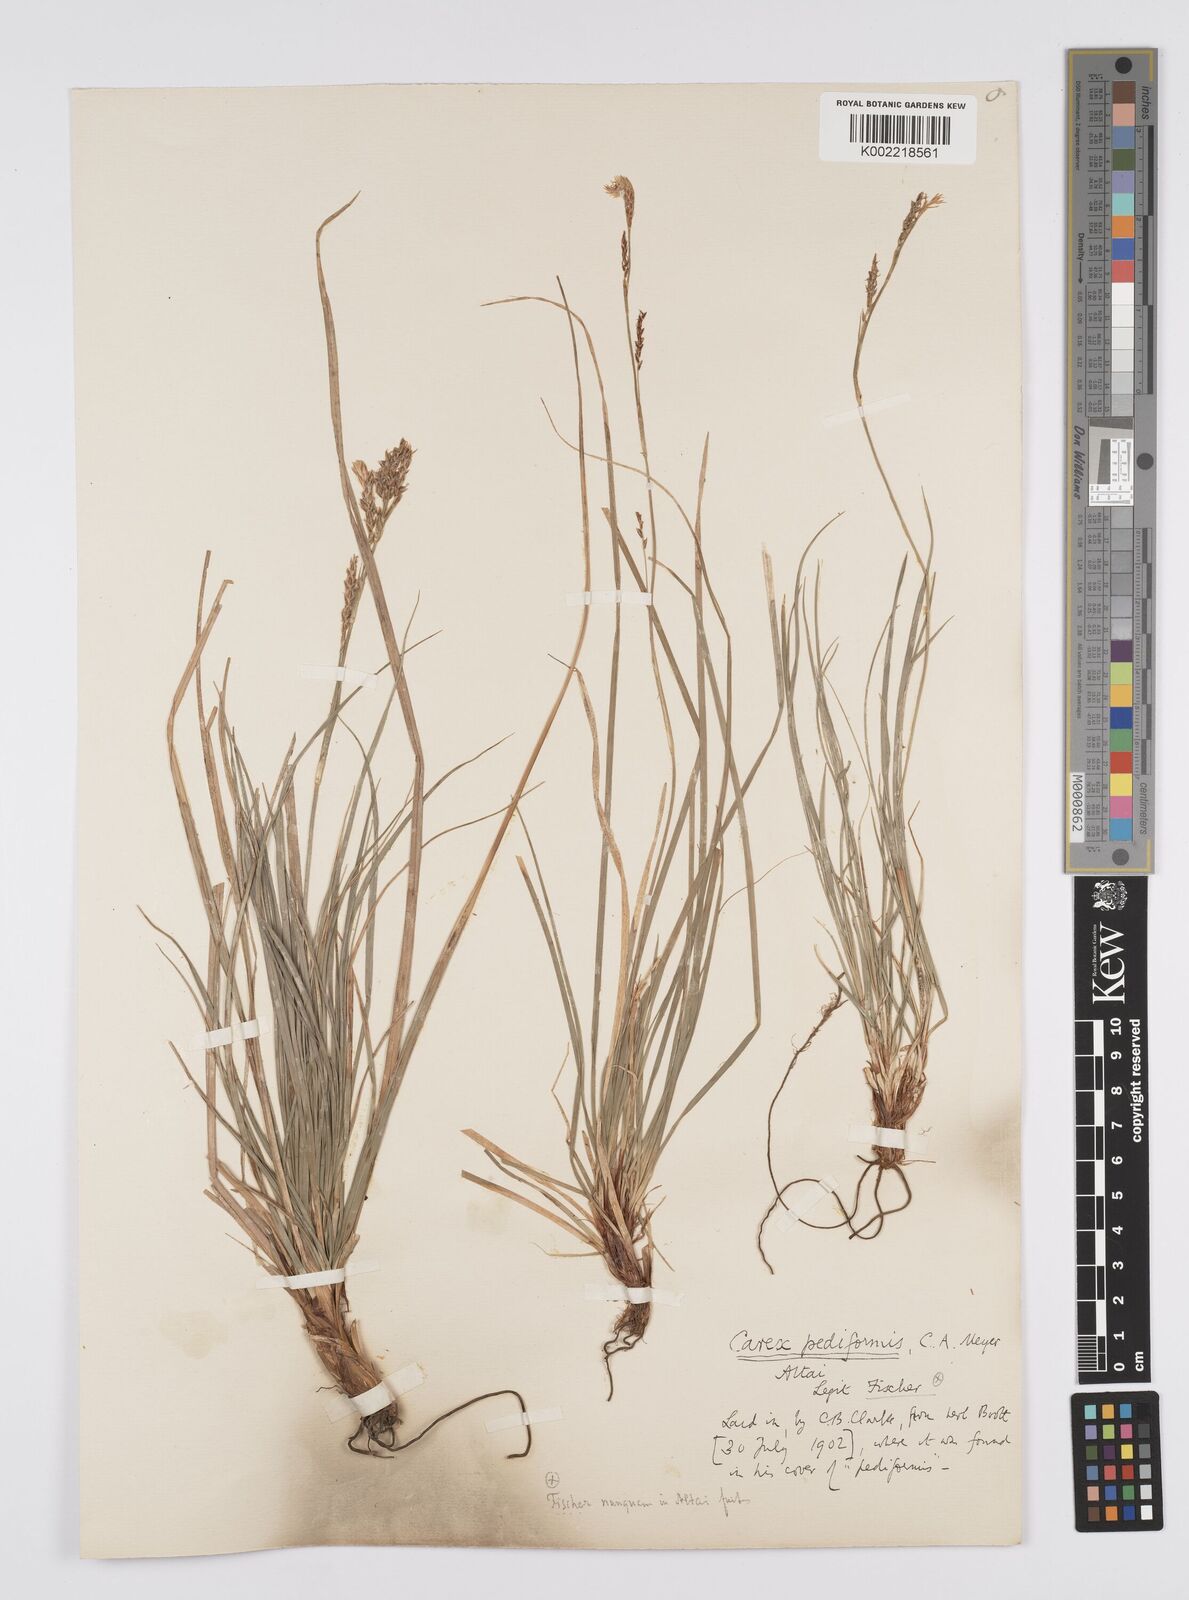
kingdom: Plantae
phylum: Tracheophyta
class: Liliopsida
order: Poales
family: Cyperaceae
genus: Carex
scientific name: Carex pediformis
